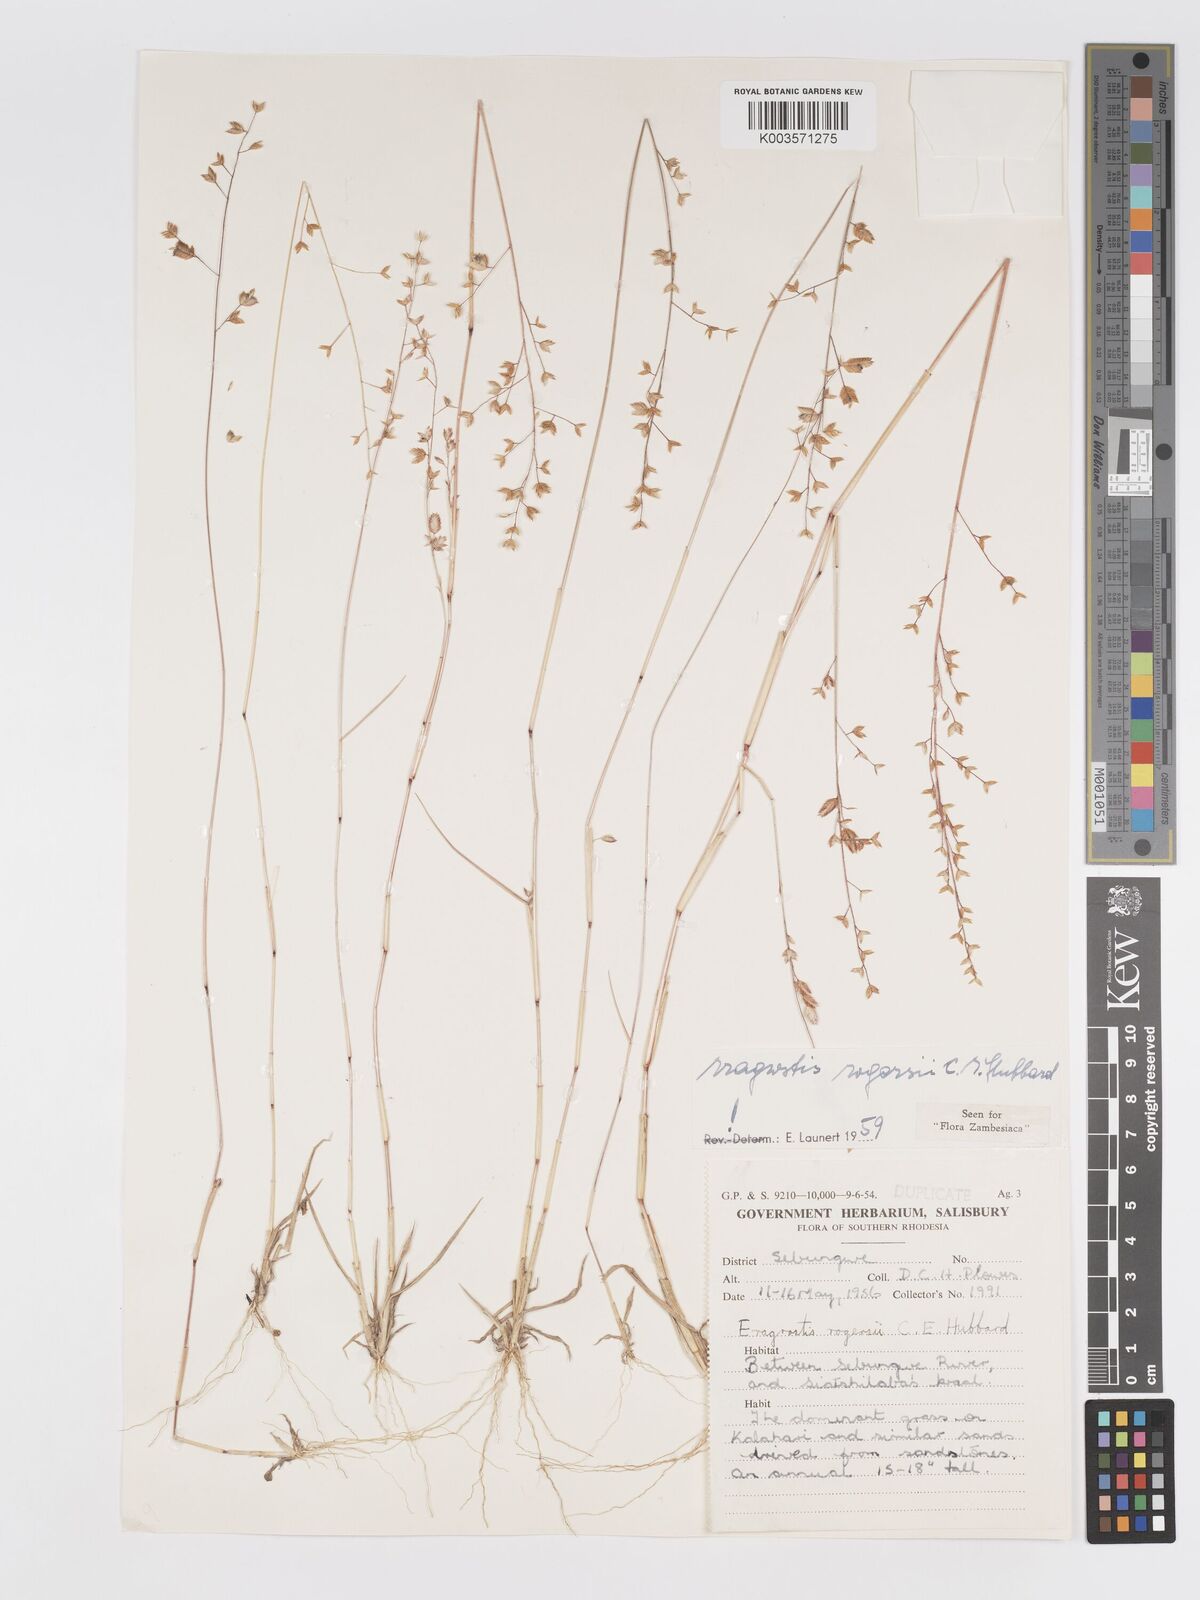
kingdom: Plantae
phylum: Tracheophyta
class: Liliopsida
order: Poales
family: Poaceae
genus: Eragrostis
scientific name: Eragrostis rogersii
